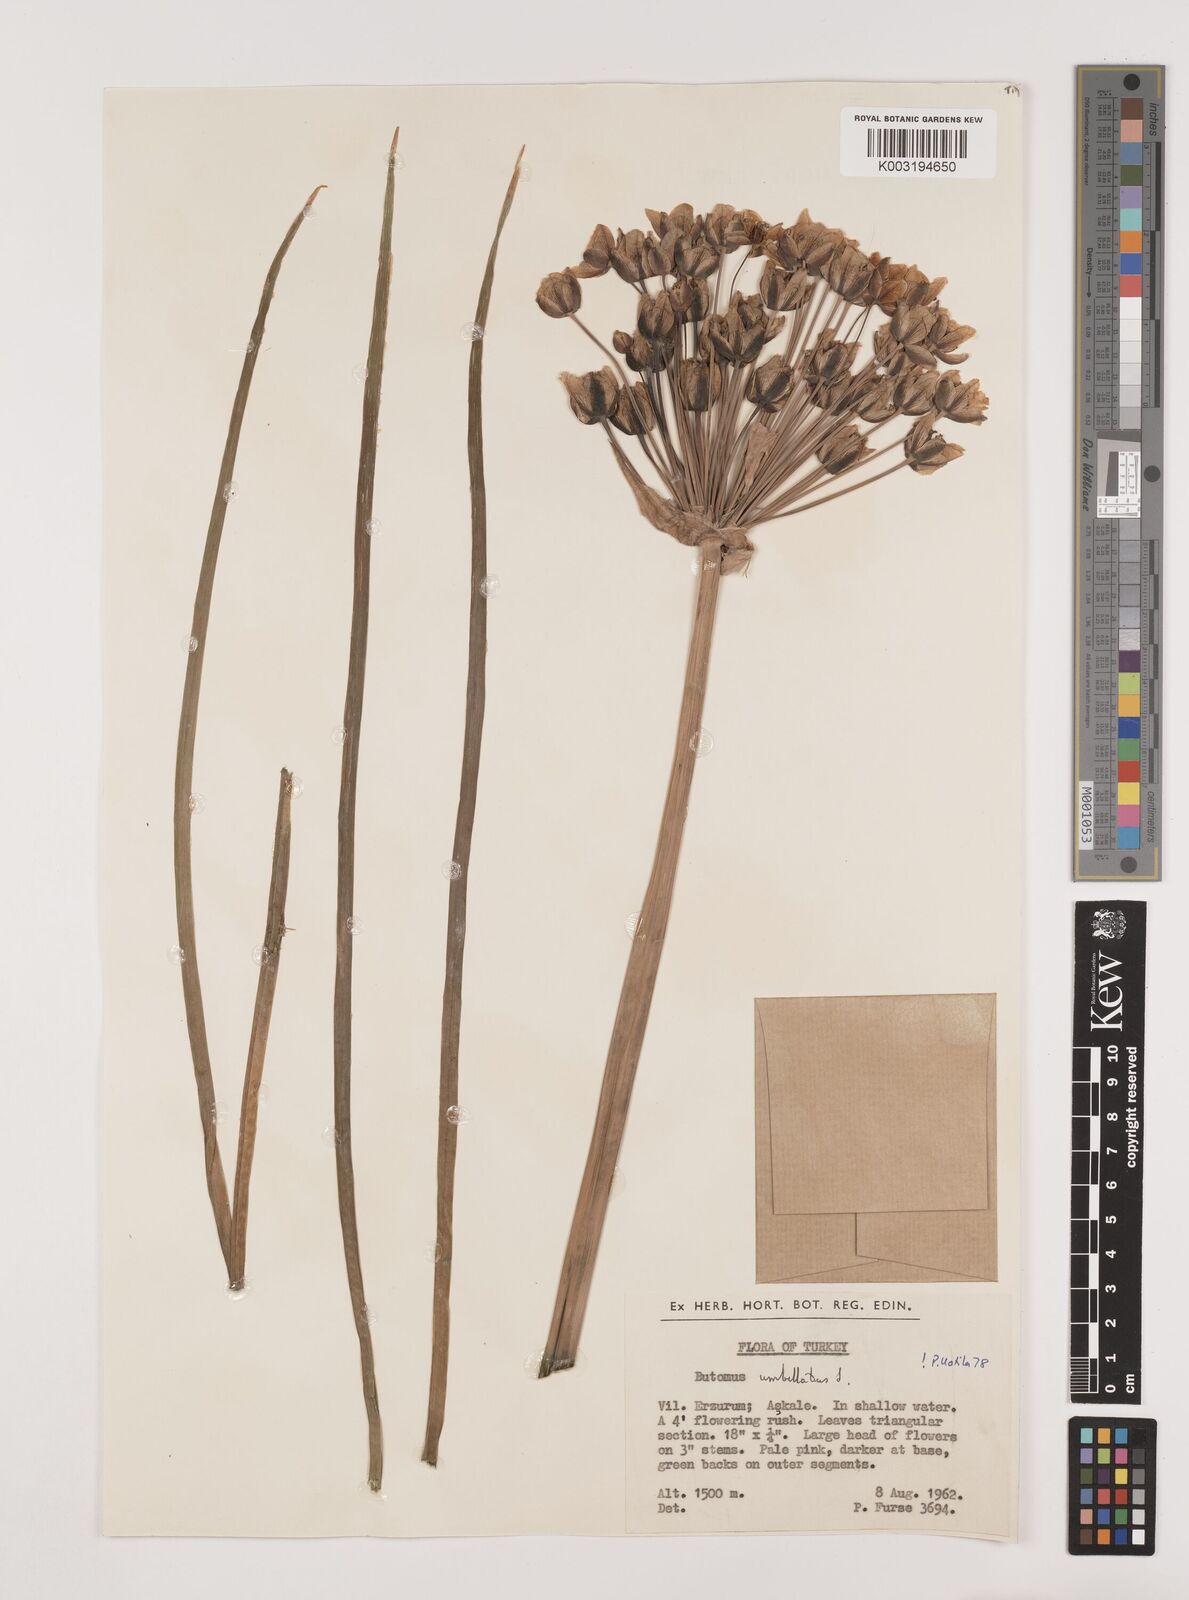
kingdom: Plantae
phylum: Tracheophyta
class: Liliopsida
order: Alismatales
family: Butomaceae
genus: Butomus
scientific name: Butomus
